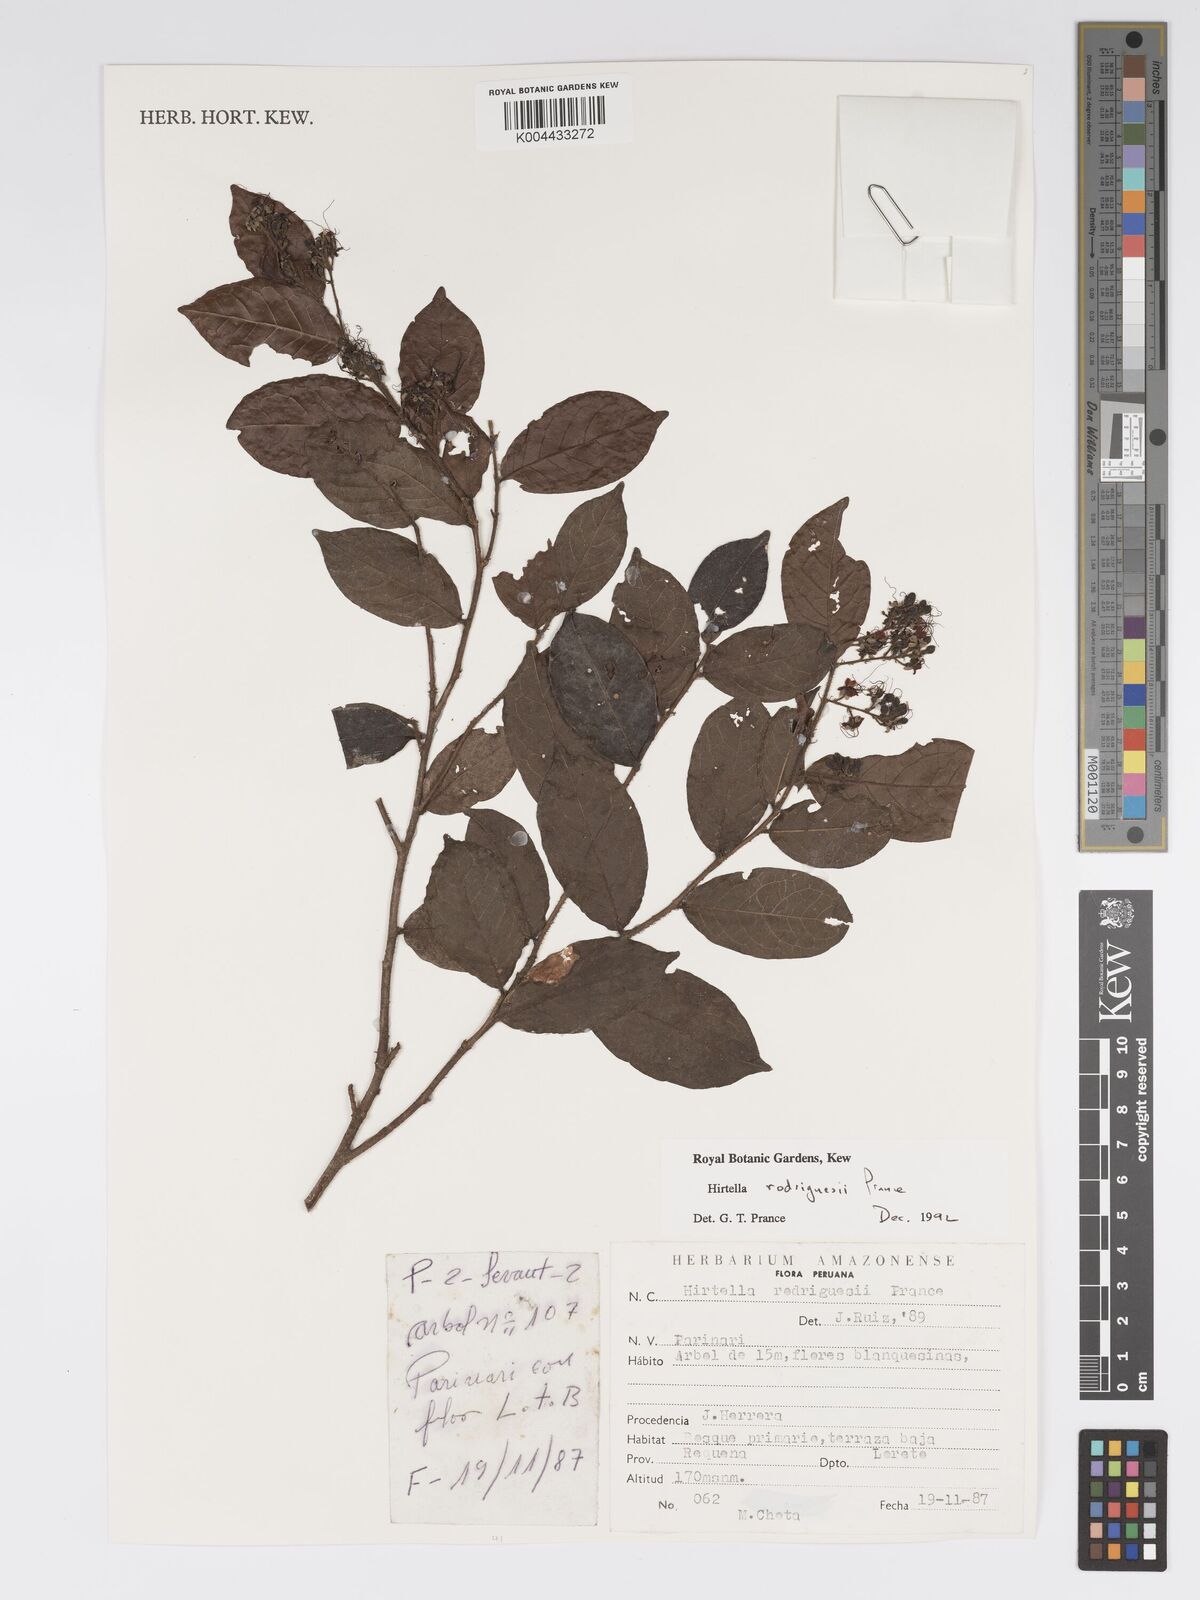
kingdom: Plantae
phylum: Tracheophyta
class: Magnoliopsida
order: Malpighiales
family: Chrysobalanaceae
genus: Hirtella
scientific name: Hirtella rodriguesii
